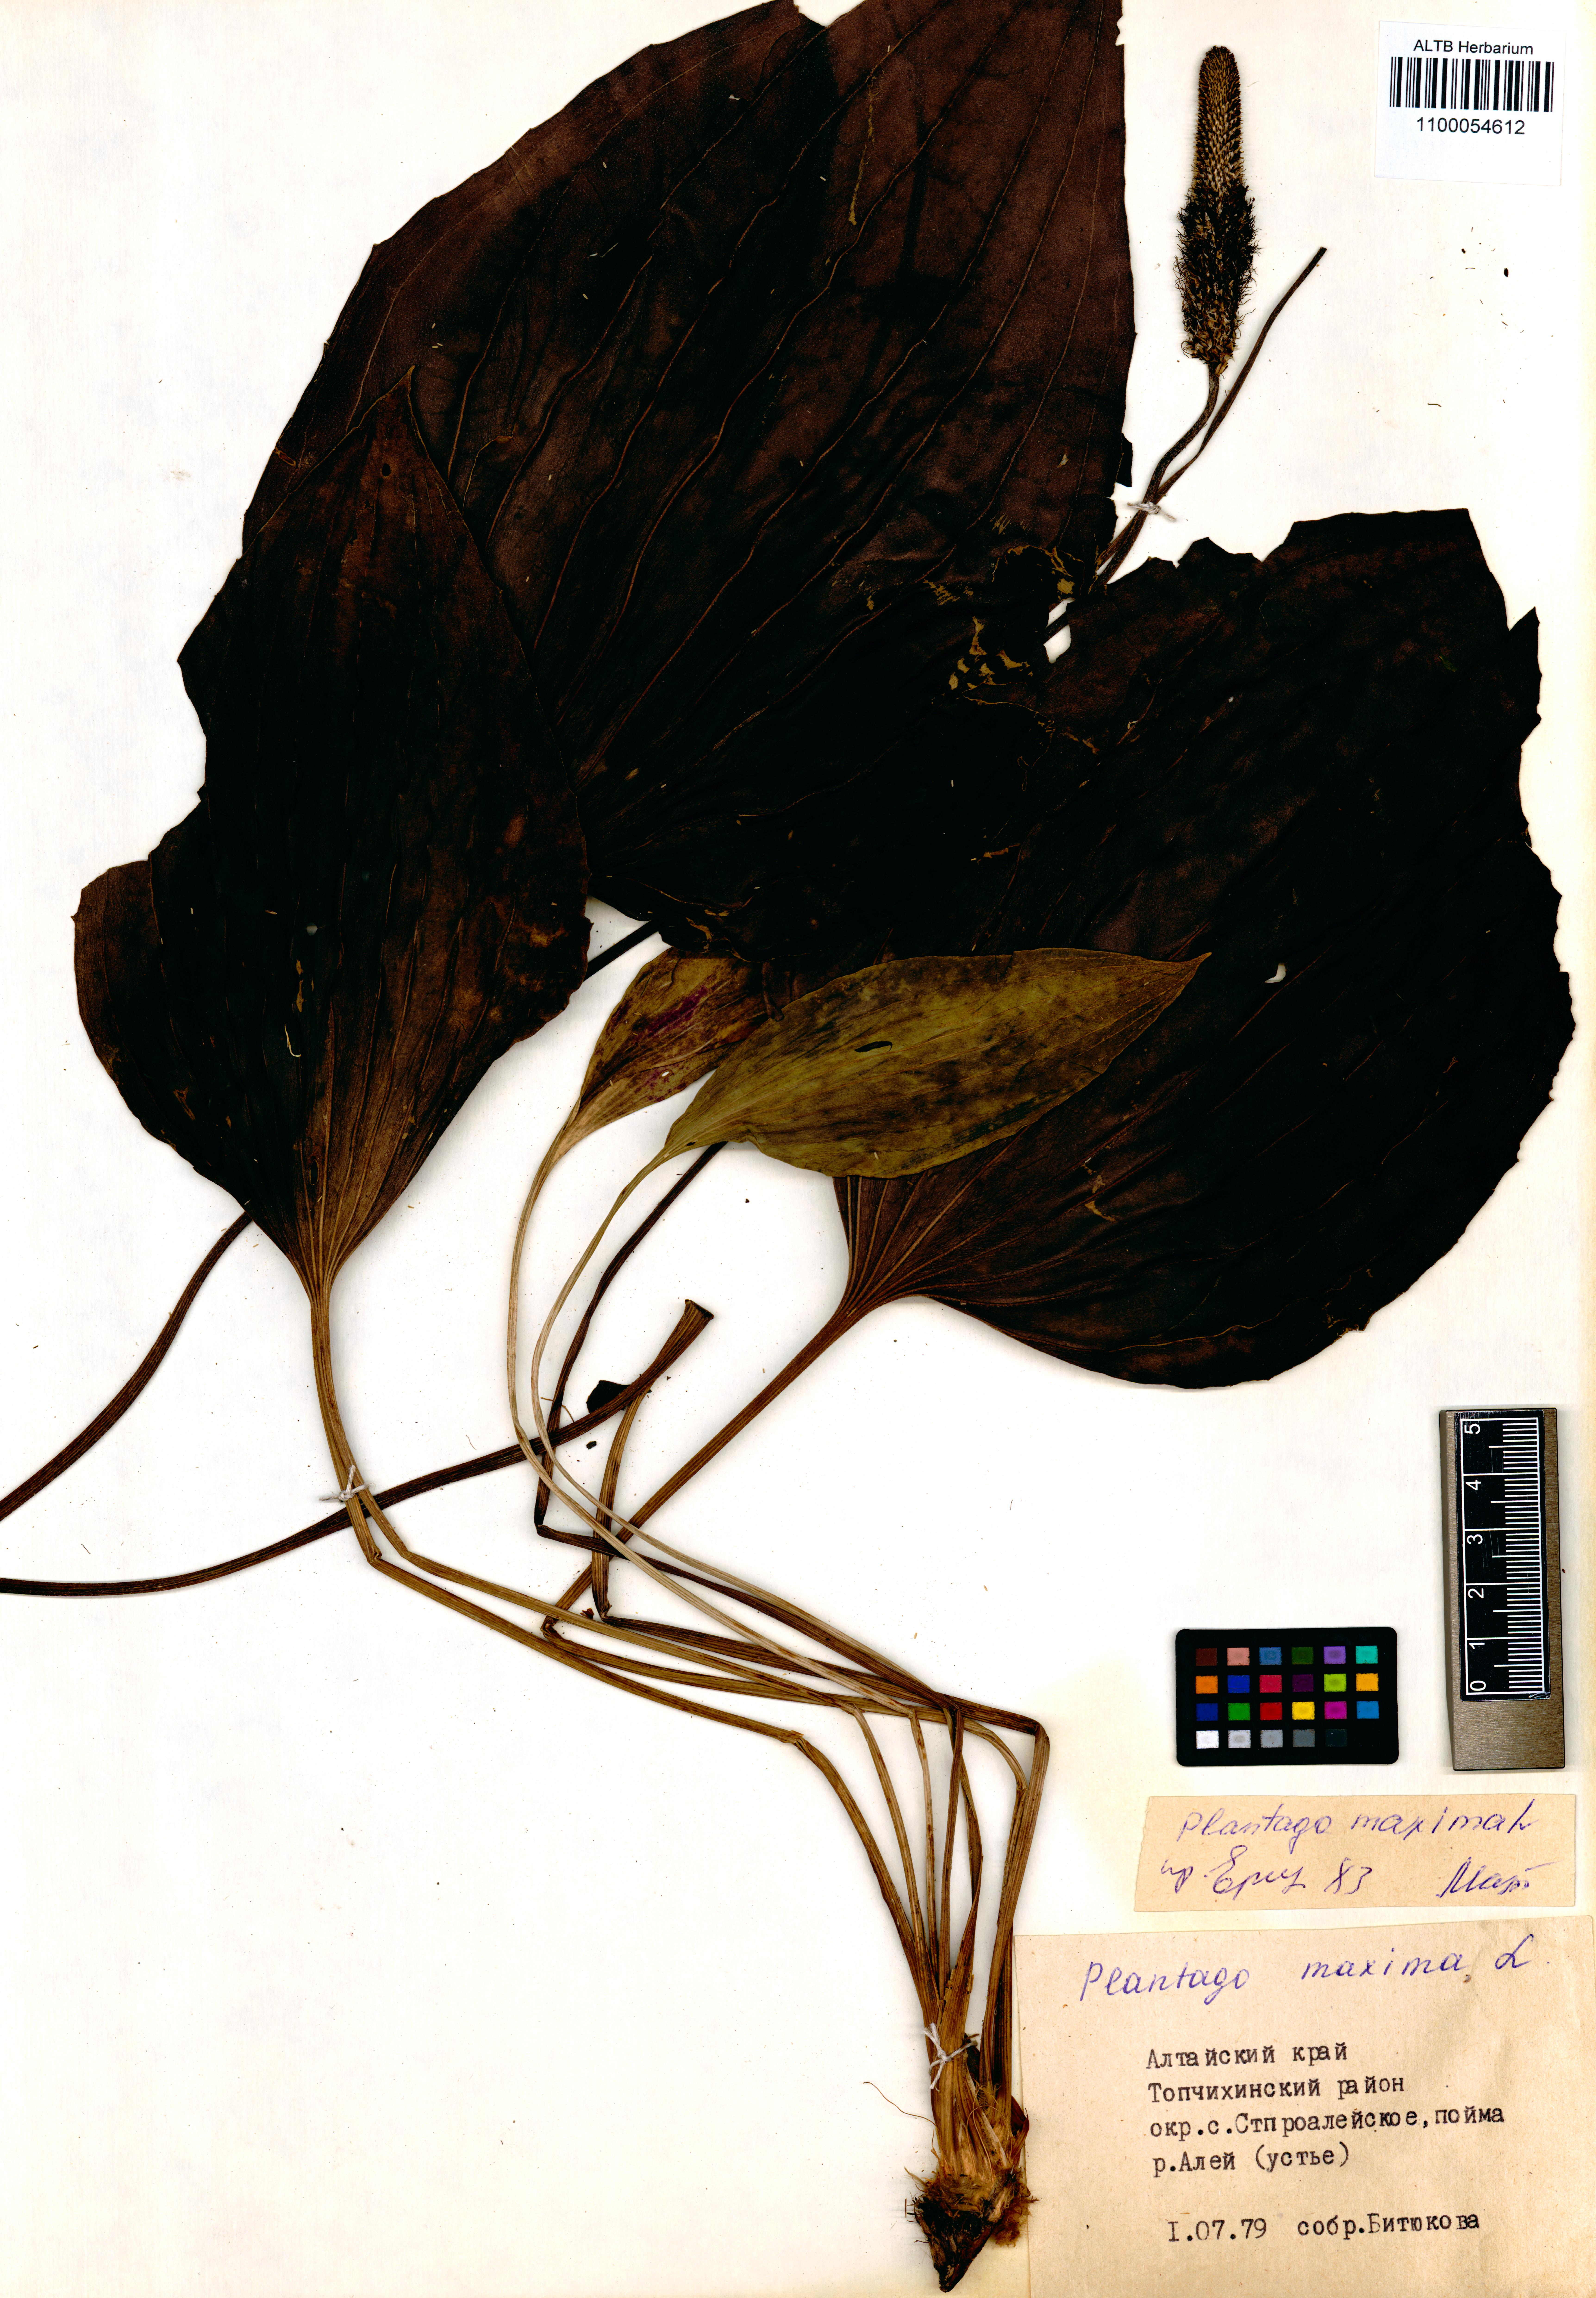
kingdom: Plantae
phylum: Tracheophyta
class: Magnoliopsida
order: Lamiales
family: Plantaginaceae
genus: Plantago
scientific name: Plantago maxima
